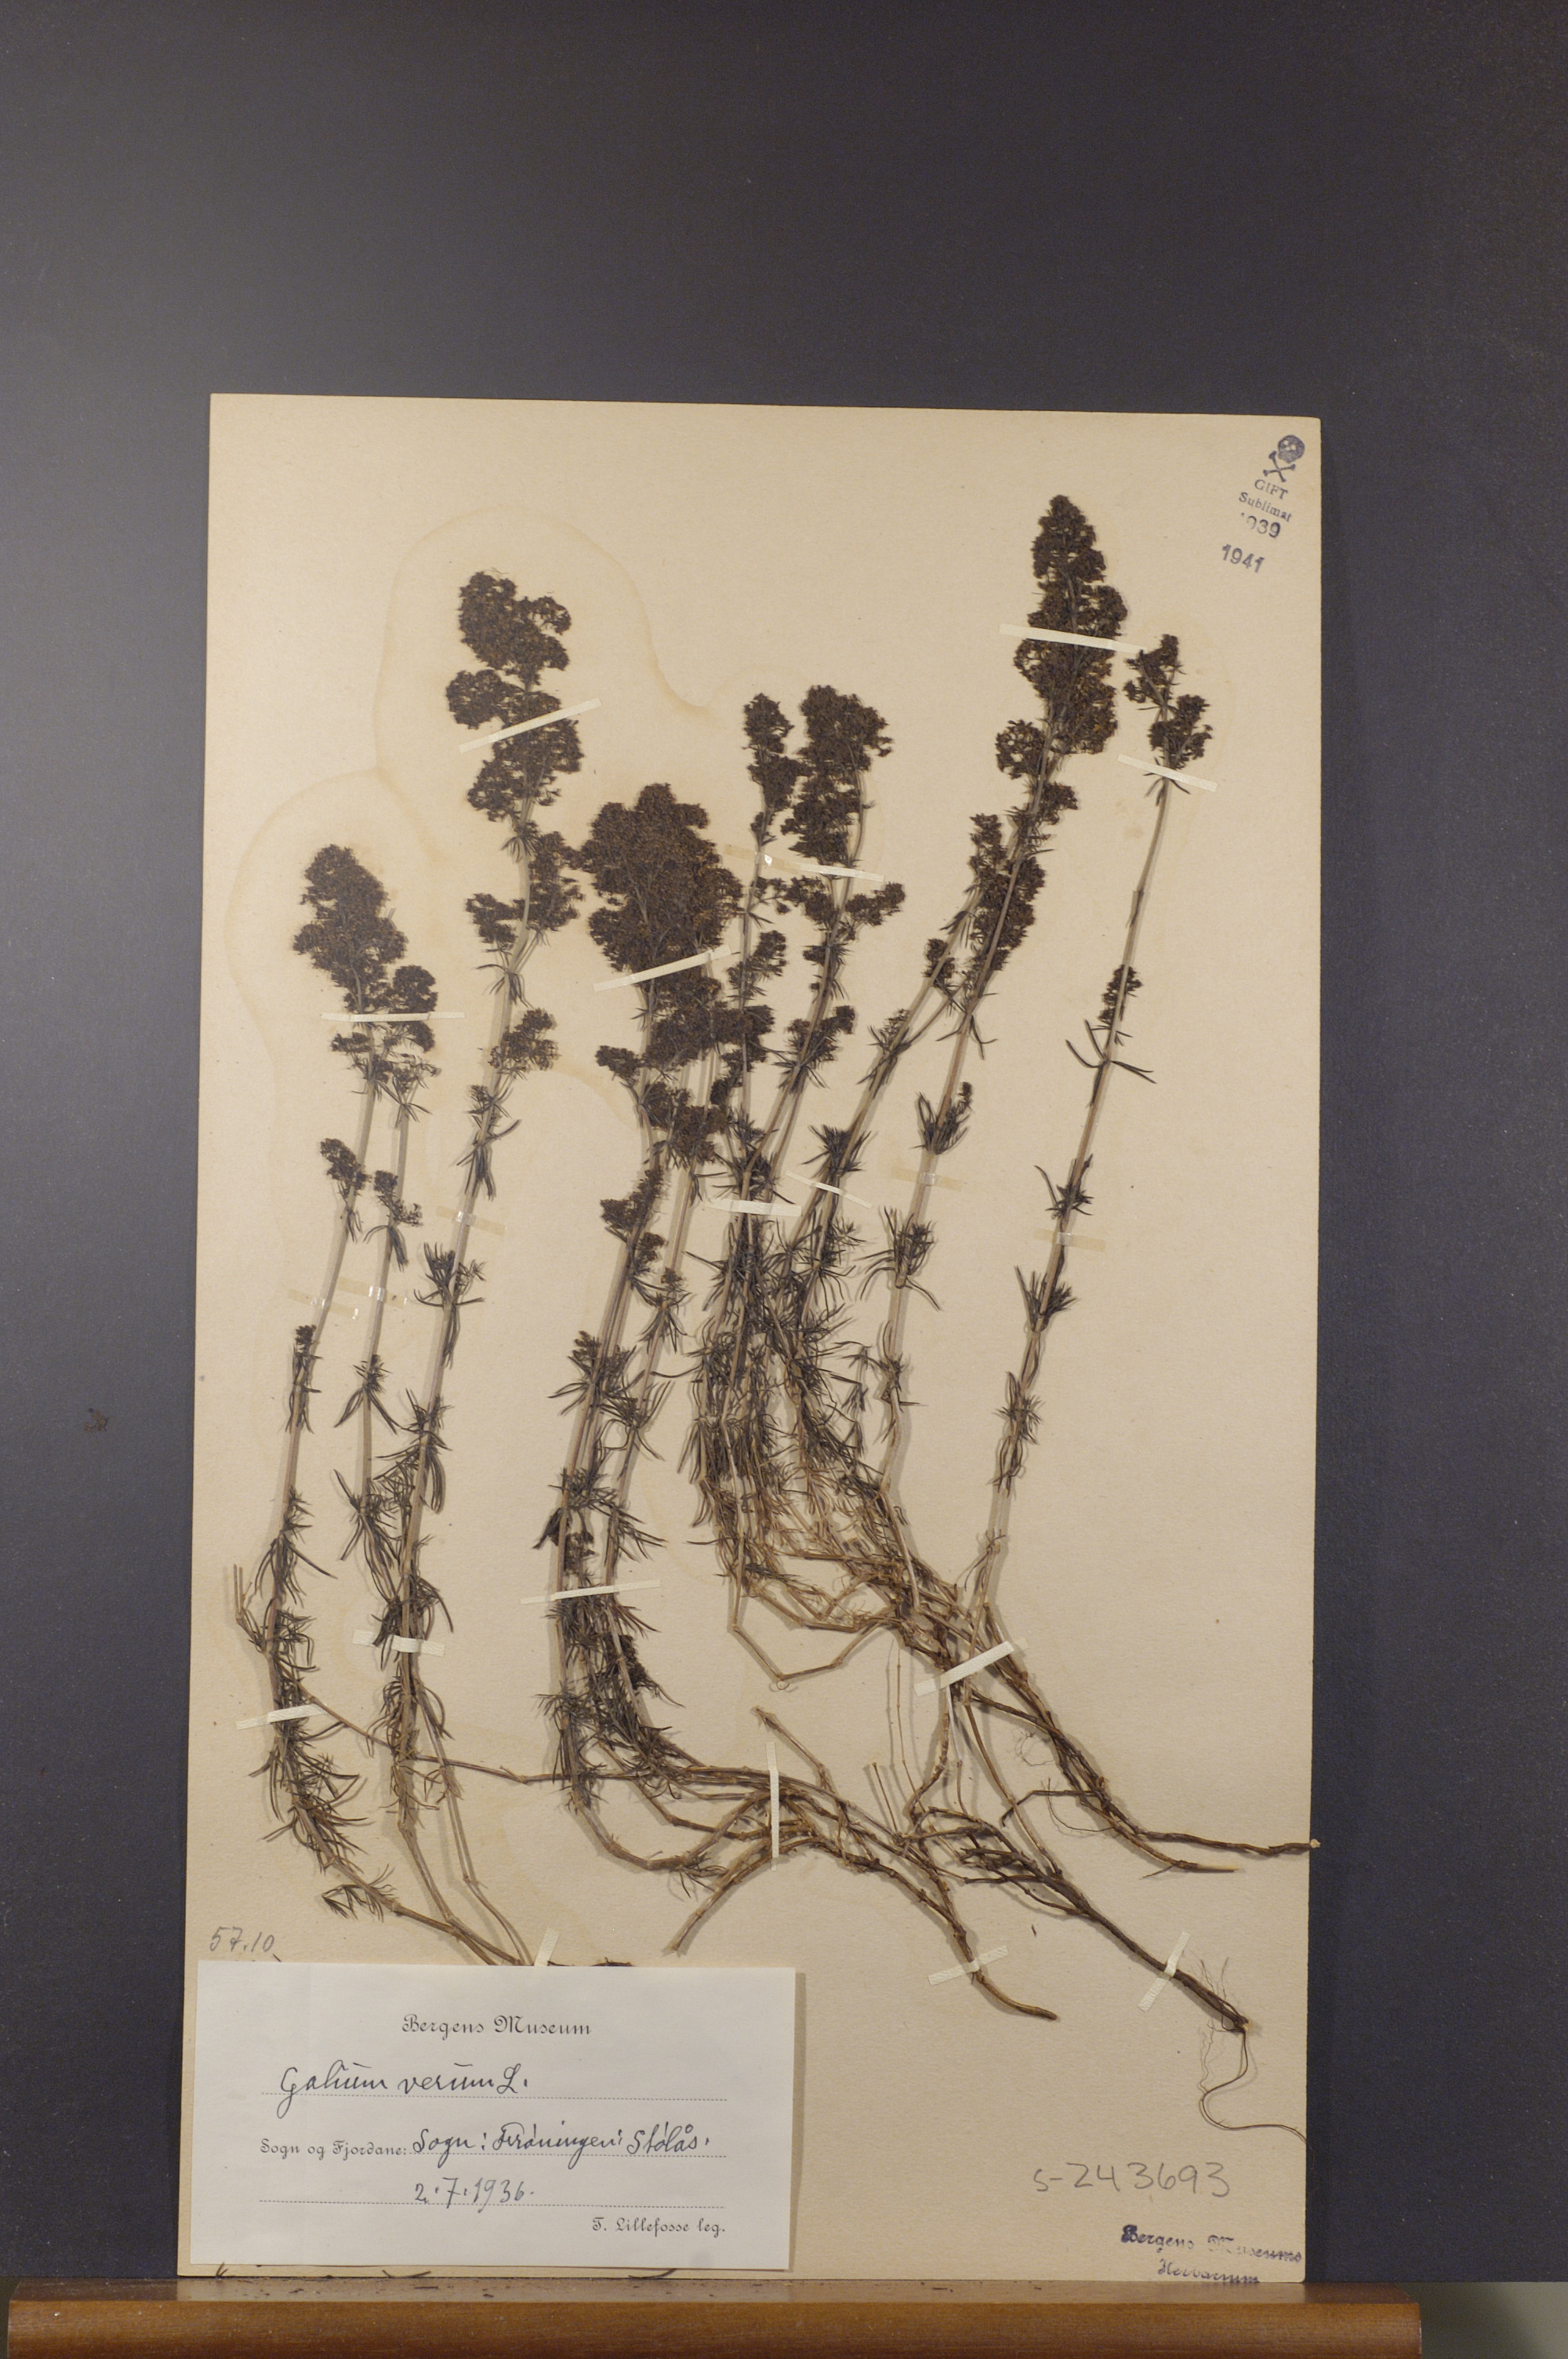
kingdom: Plantae
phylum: Tracheophyta
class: Magnoliopsida
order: Gentianales
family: Rubiaceae
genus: Galium
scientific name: Galium verum
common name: Lady's bedstraw
